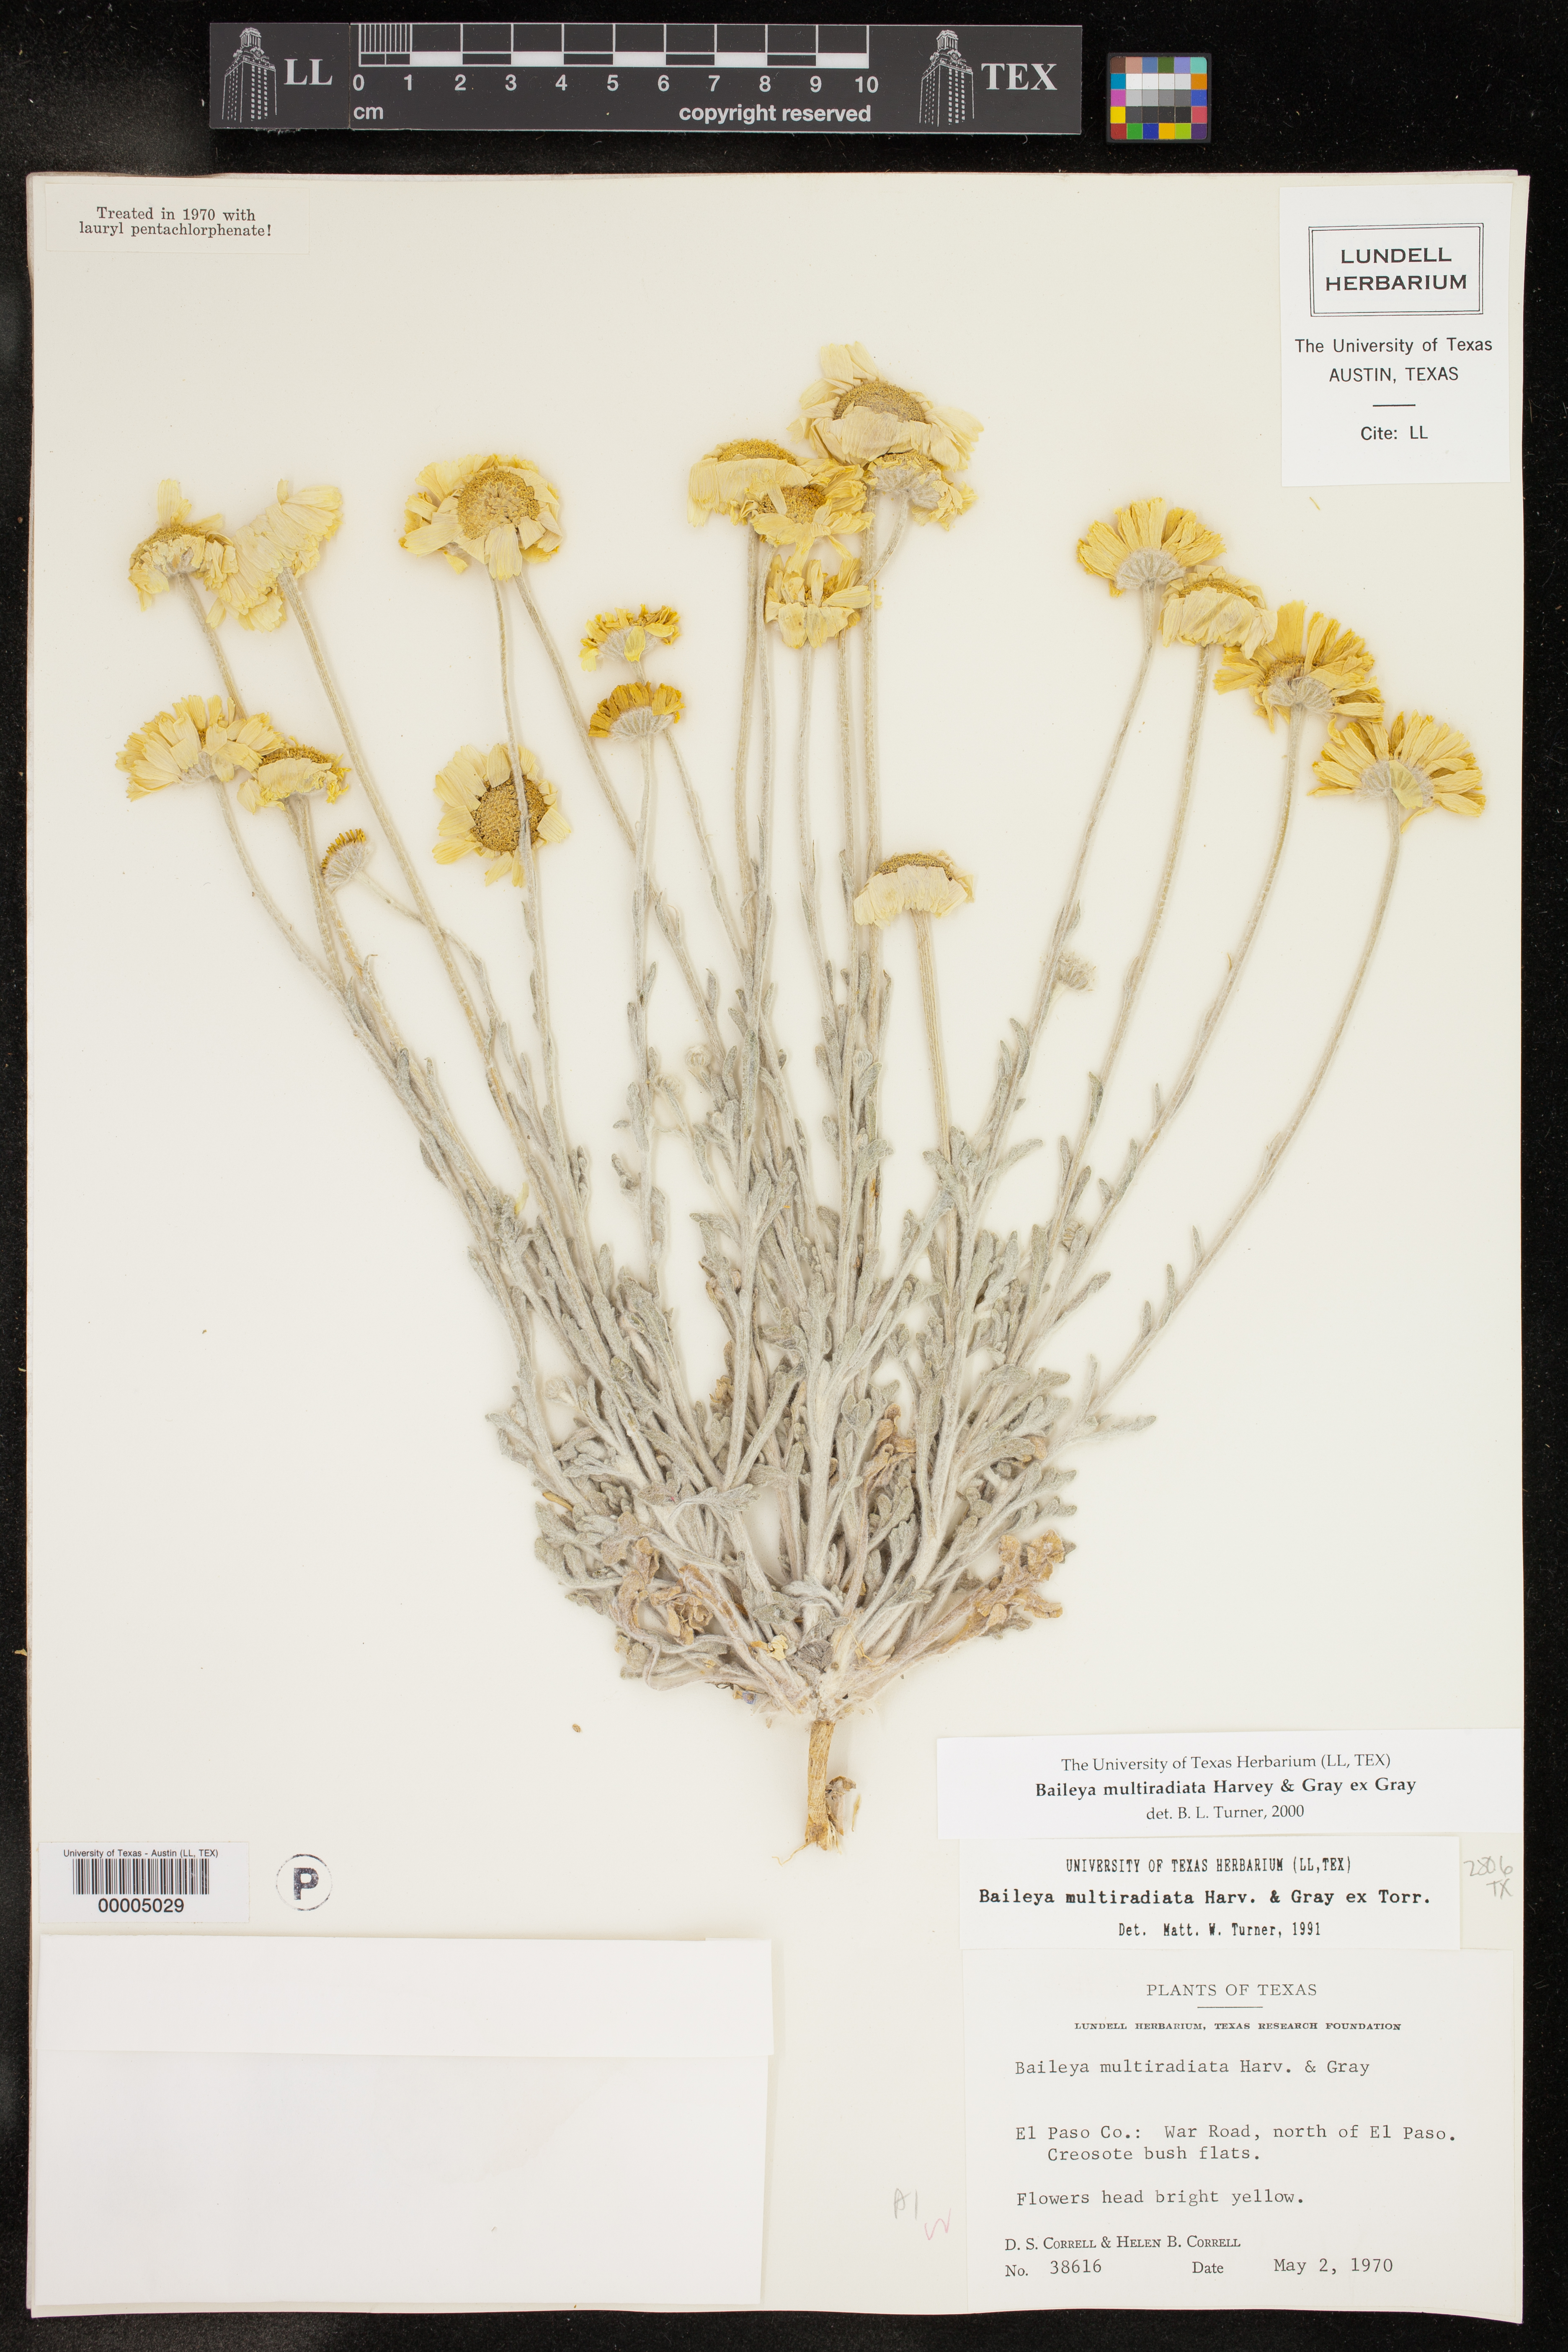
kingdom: Plantae
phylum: Tracheophyta
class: Magnoliopsida
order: Asterales
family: Asteraceae
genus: Baileya
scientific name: Baileya multiradiata
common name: Desert-marigold
